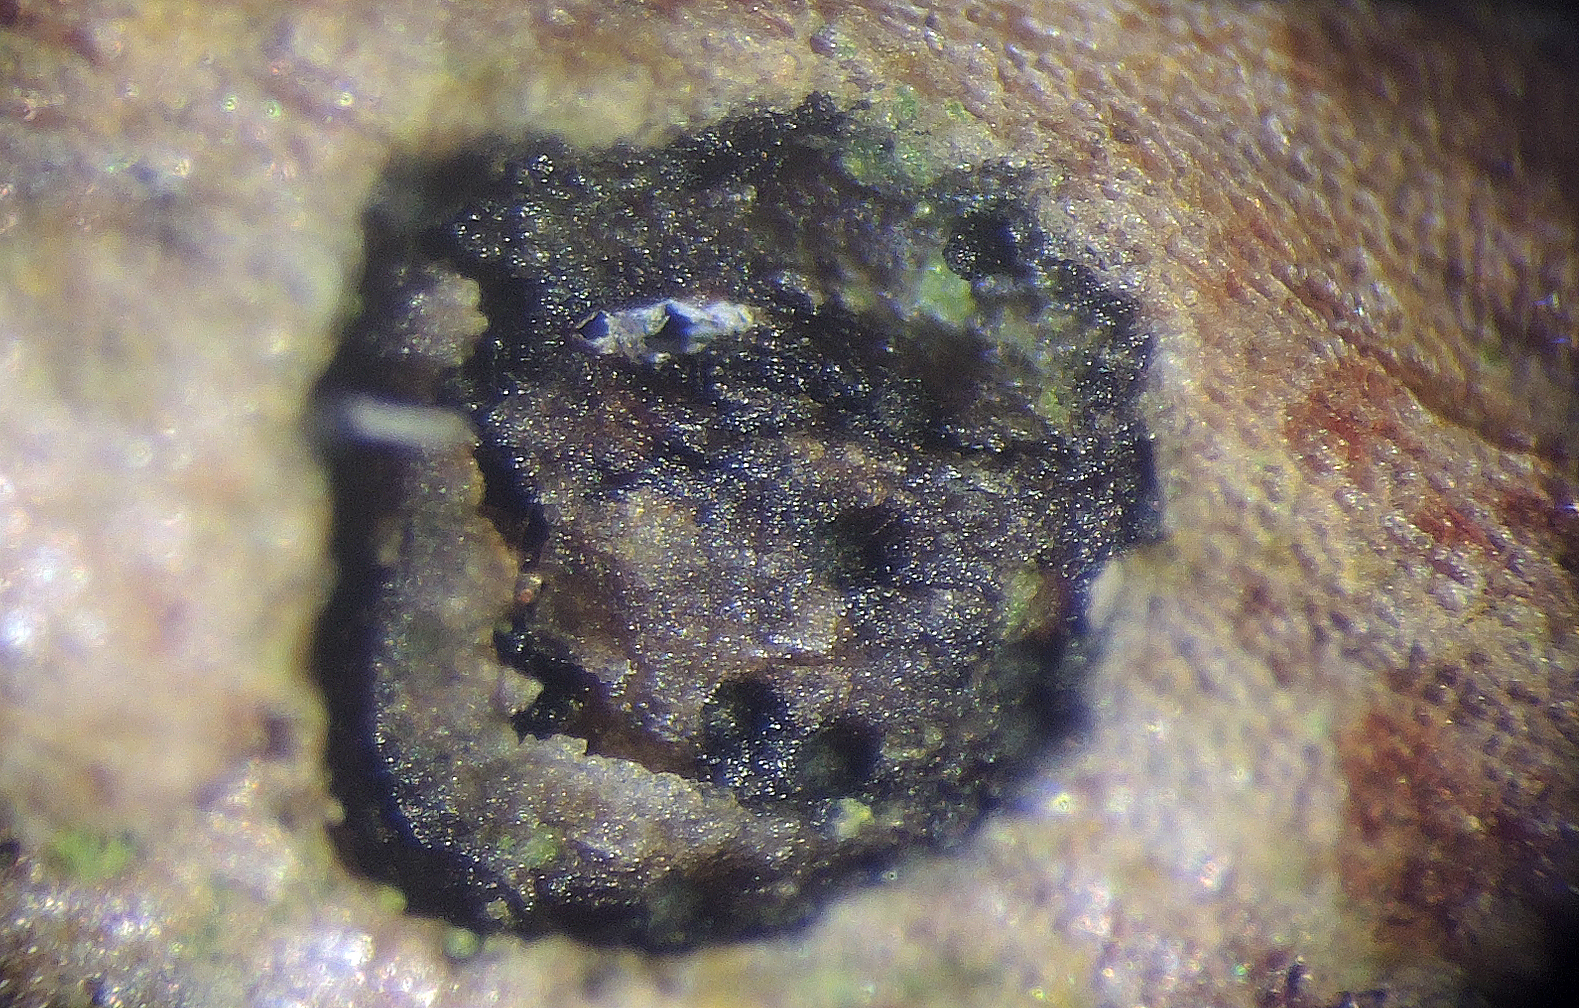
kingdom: Plantae
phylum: Bryophyta
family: Dothideomycetes
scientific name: Dothideomycetes
